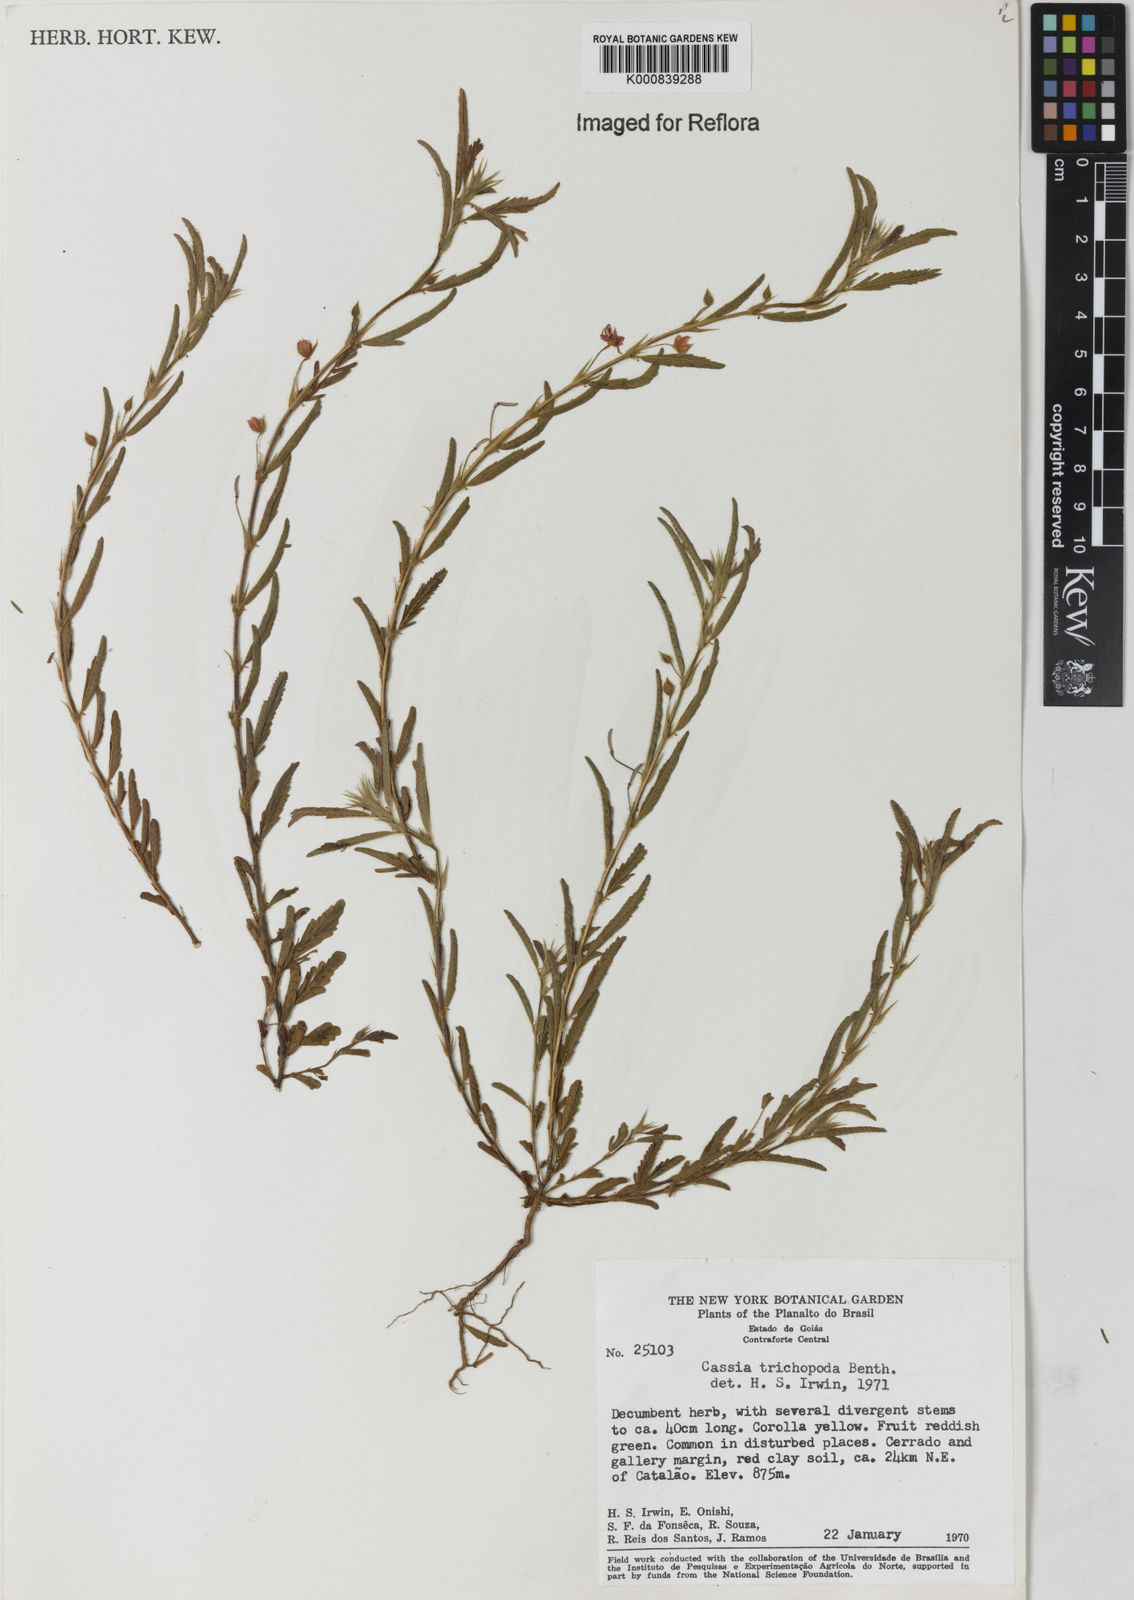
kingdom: Plantae
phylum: Tracheophyta
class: Magnoliopsida
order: Fabales
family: Fabaceae
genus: Chamaecrista
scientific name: Chamaecrista trichopoda
